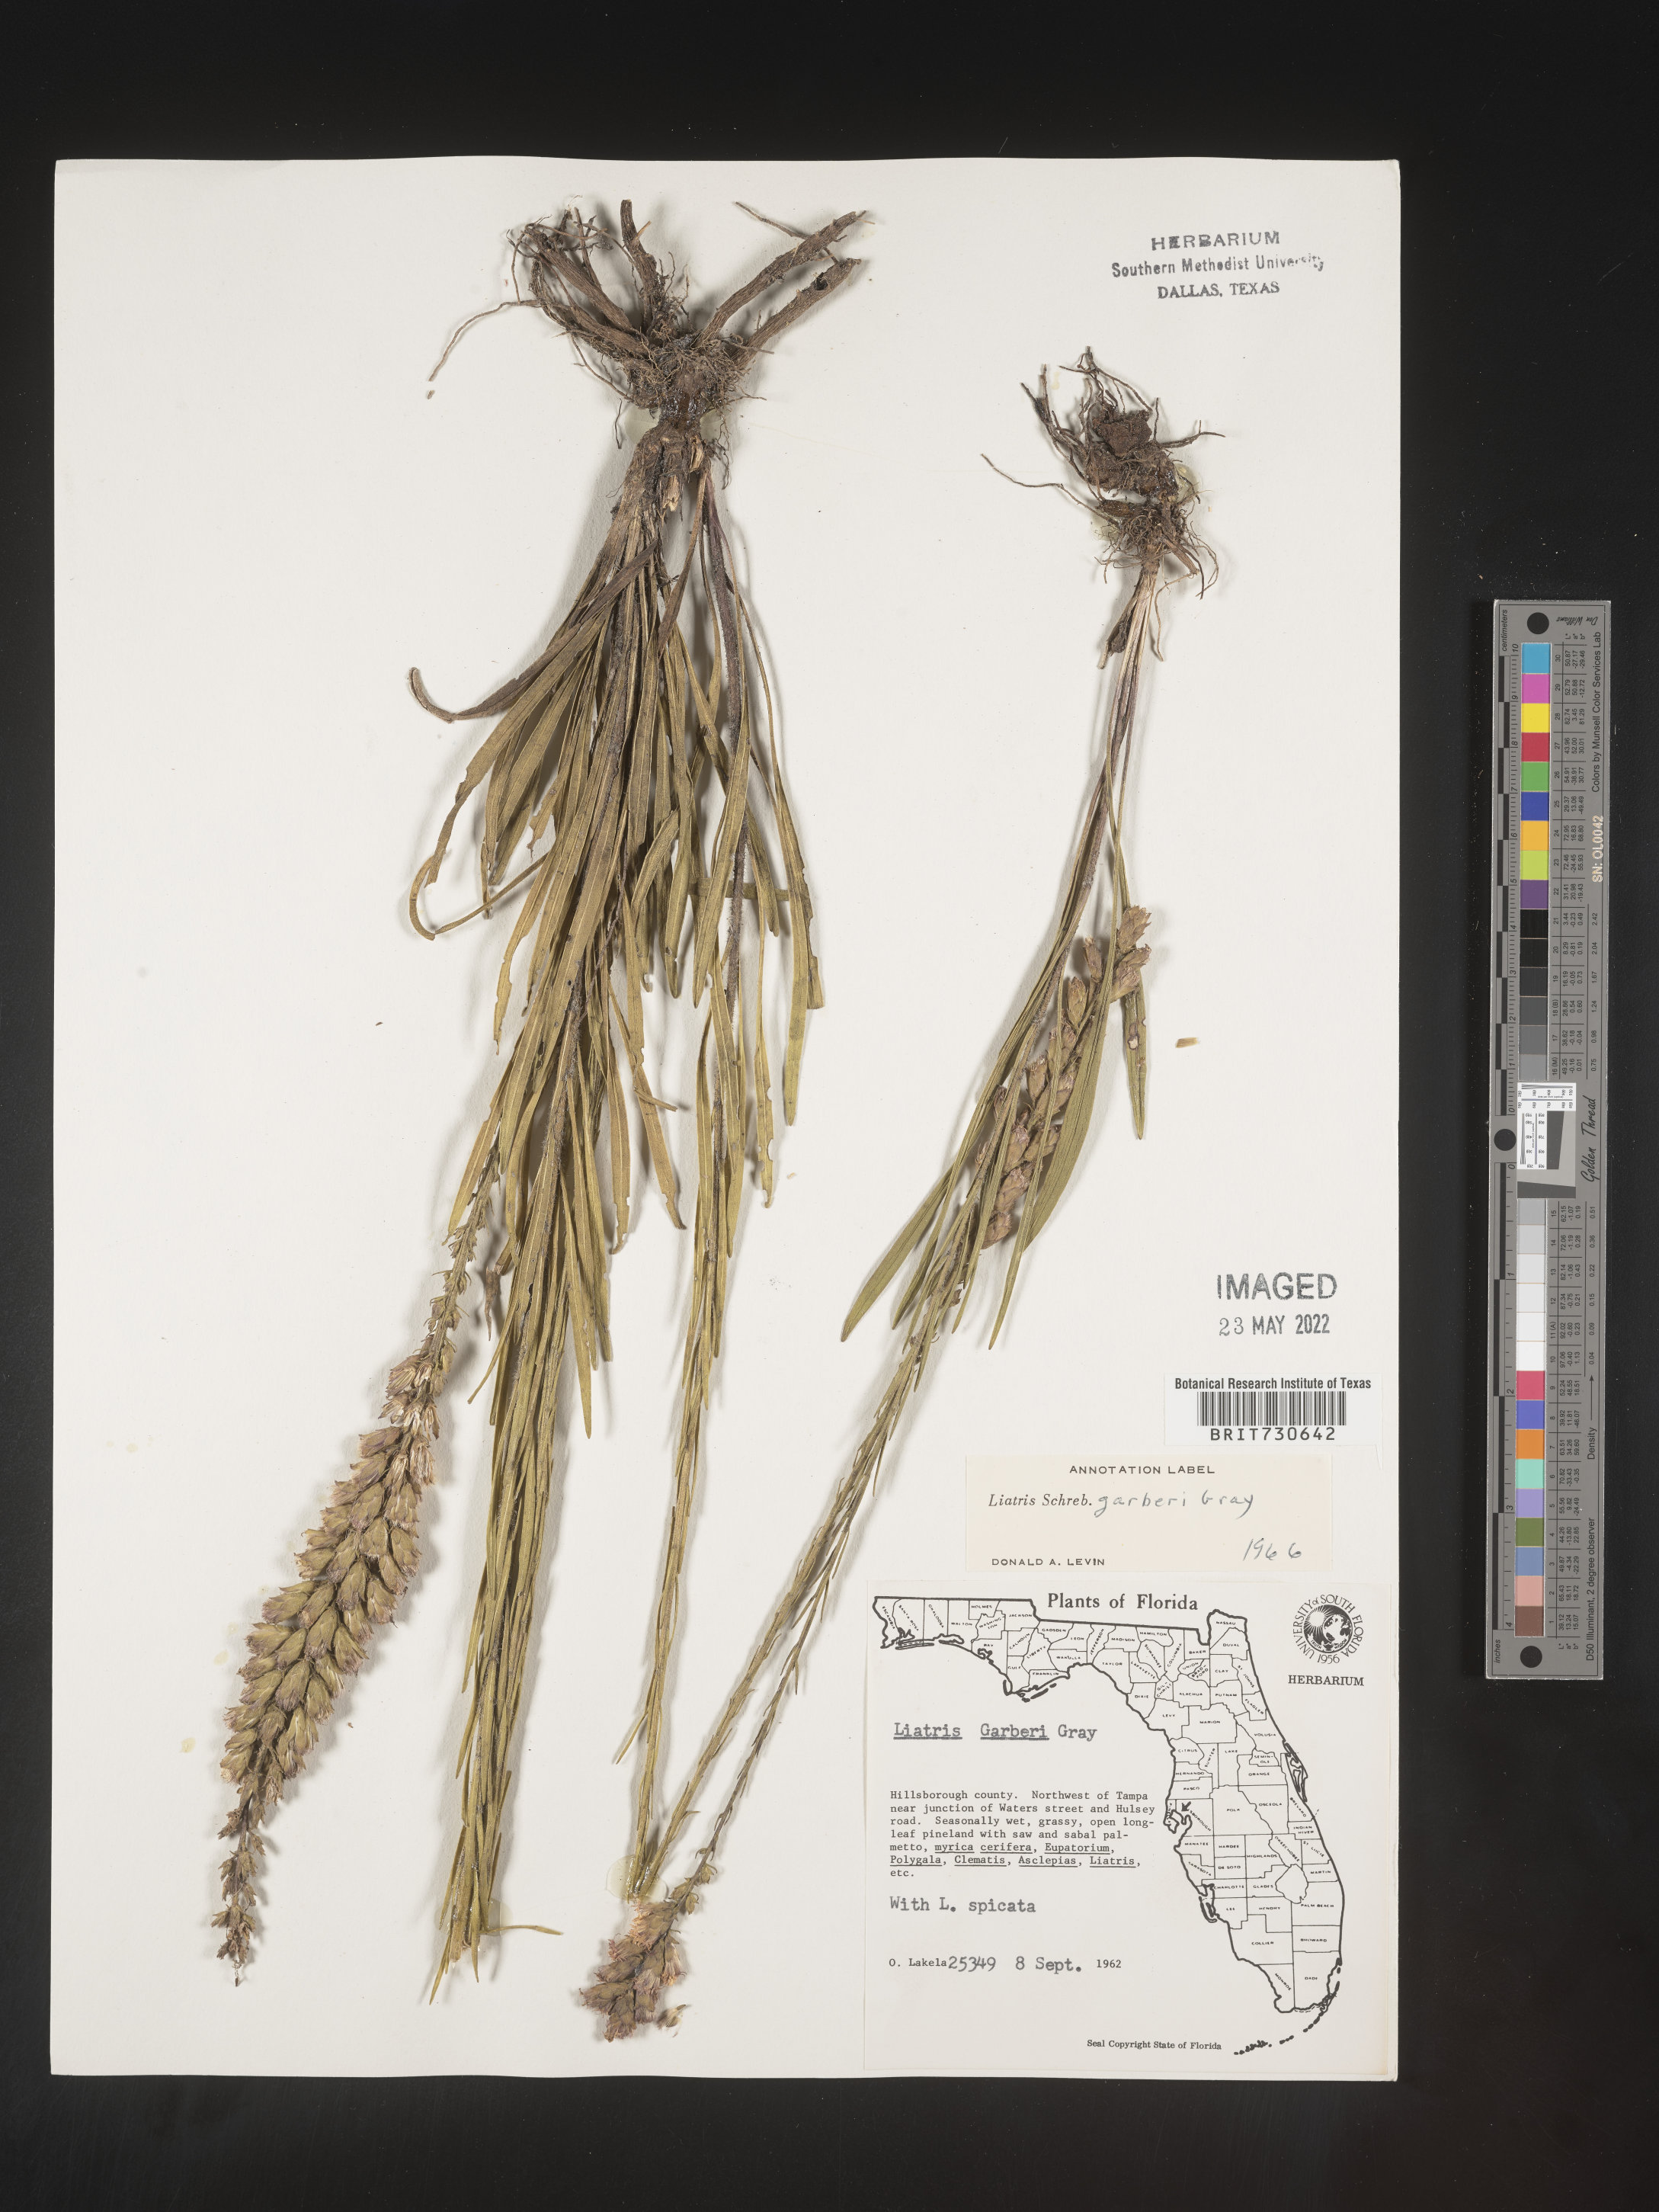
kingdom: Plantae
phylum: Tracheophyta
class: Magnoliopsida
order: Asterales
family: Asteraceae
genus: Liatris
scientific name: Liatris garberi
